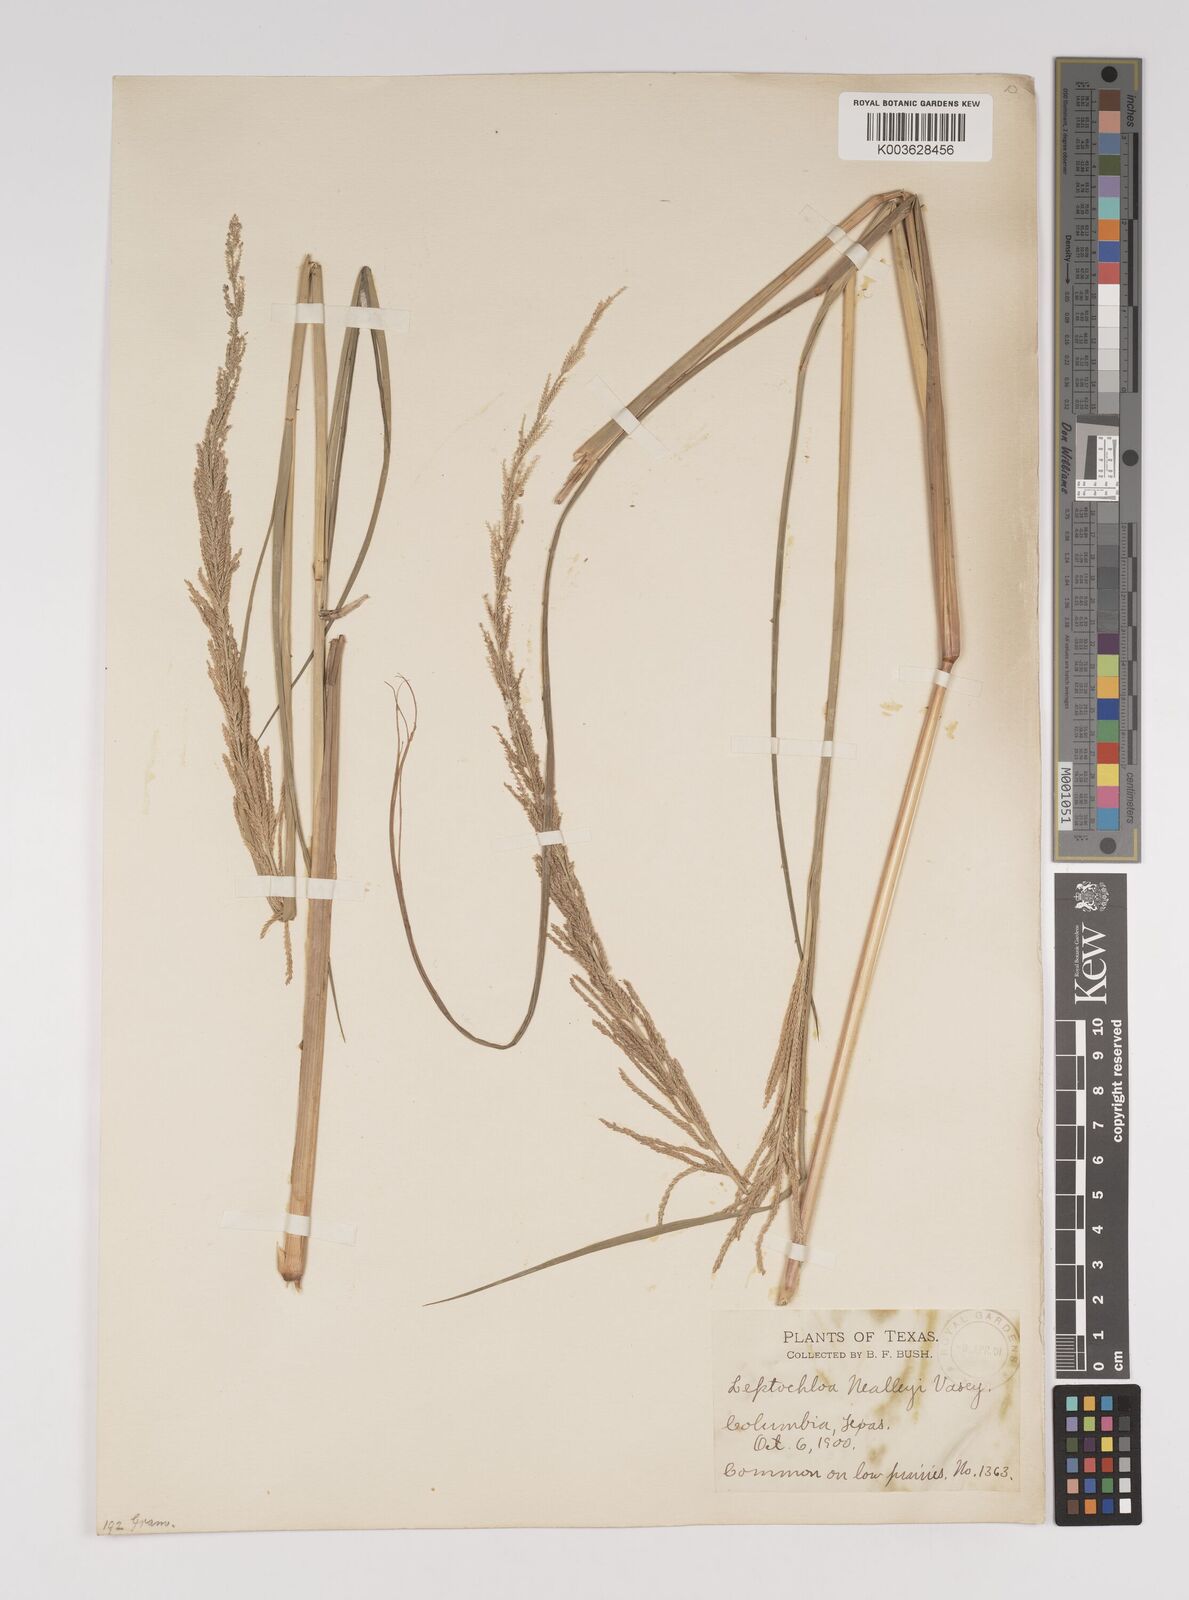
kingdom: Plantae
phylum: Tracheophyta
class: Liliopsida
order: Poales
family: Poaceae
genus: Leptochloa
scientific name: Leptochloa nealleyi
